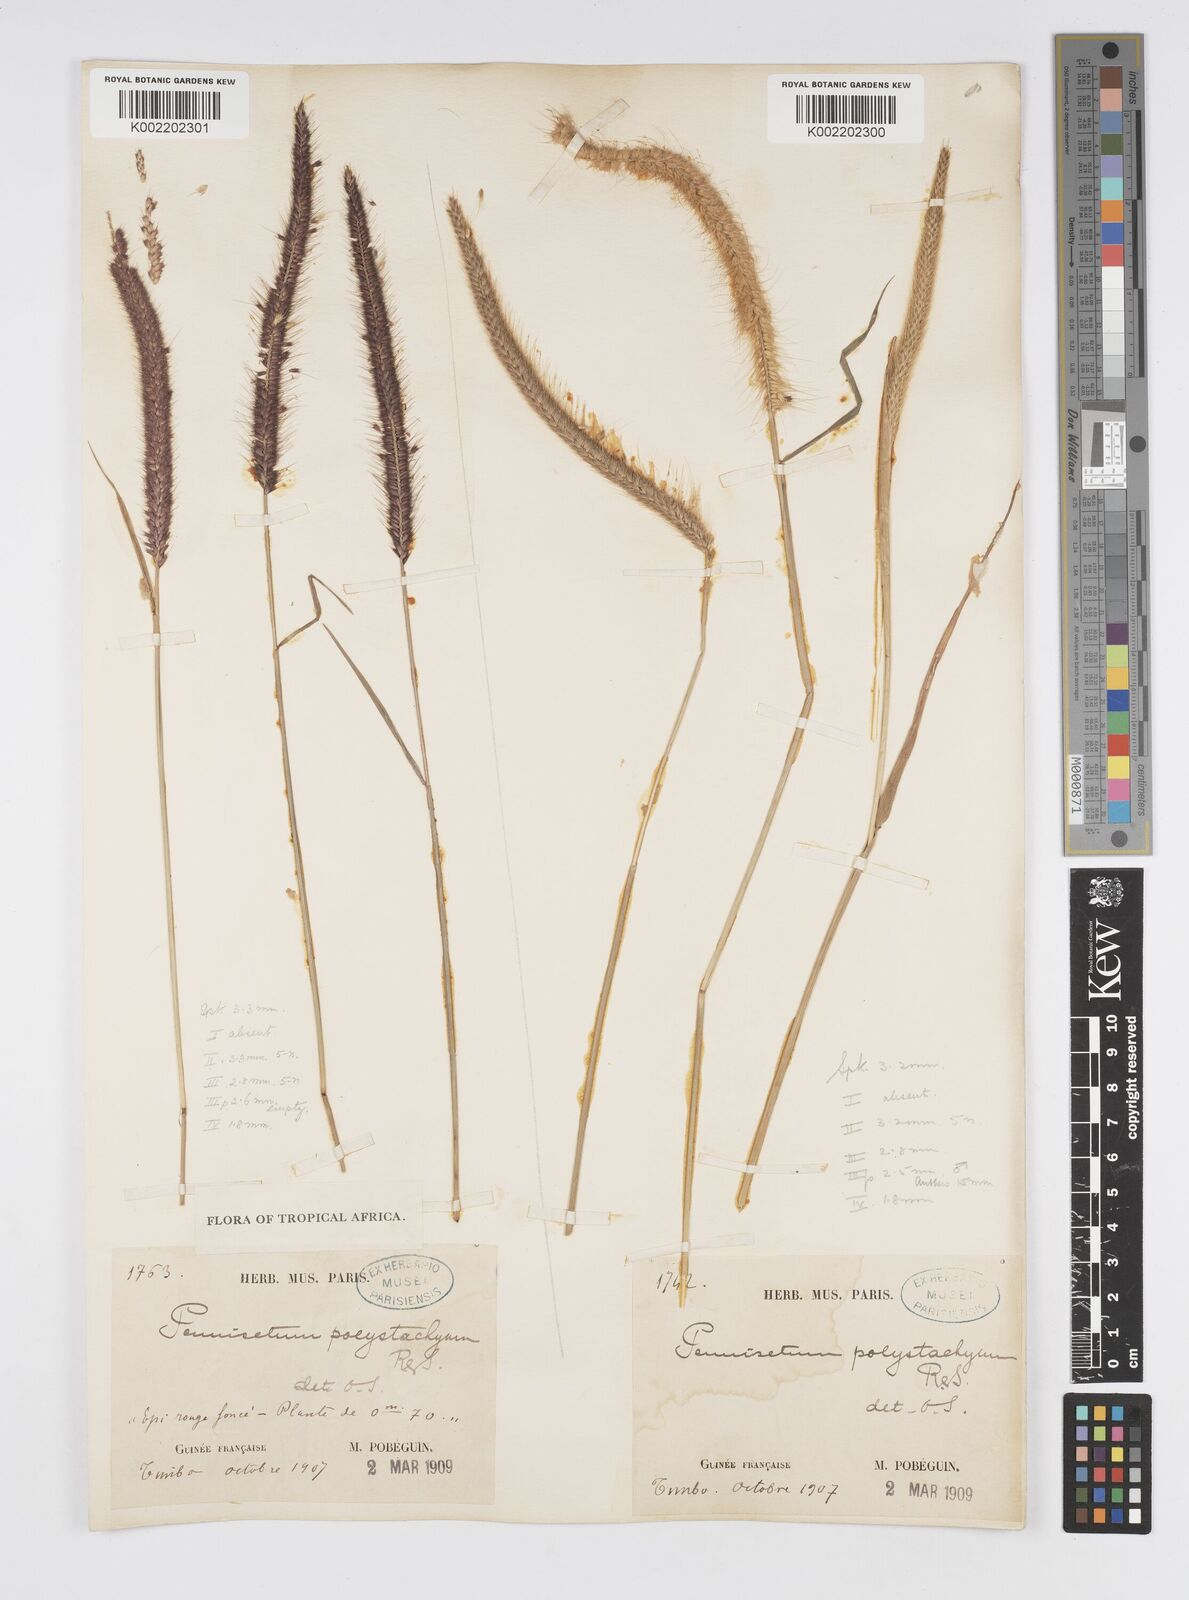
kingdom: Plantae
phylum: Tracheophyta
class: Liliopsida
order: Poales
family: Poaceae
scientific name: Poaceae
